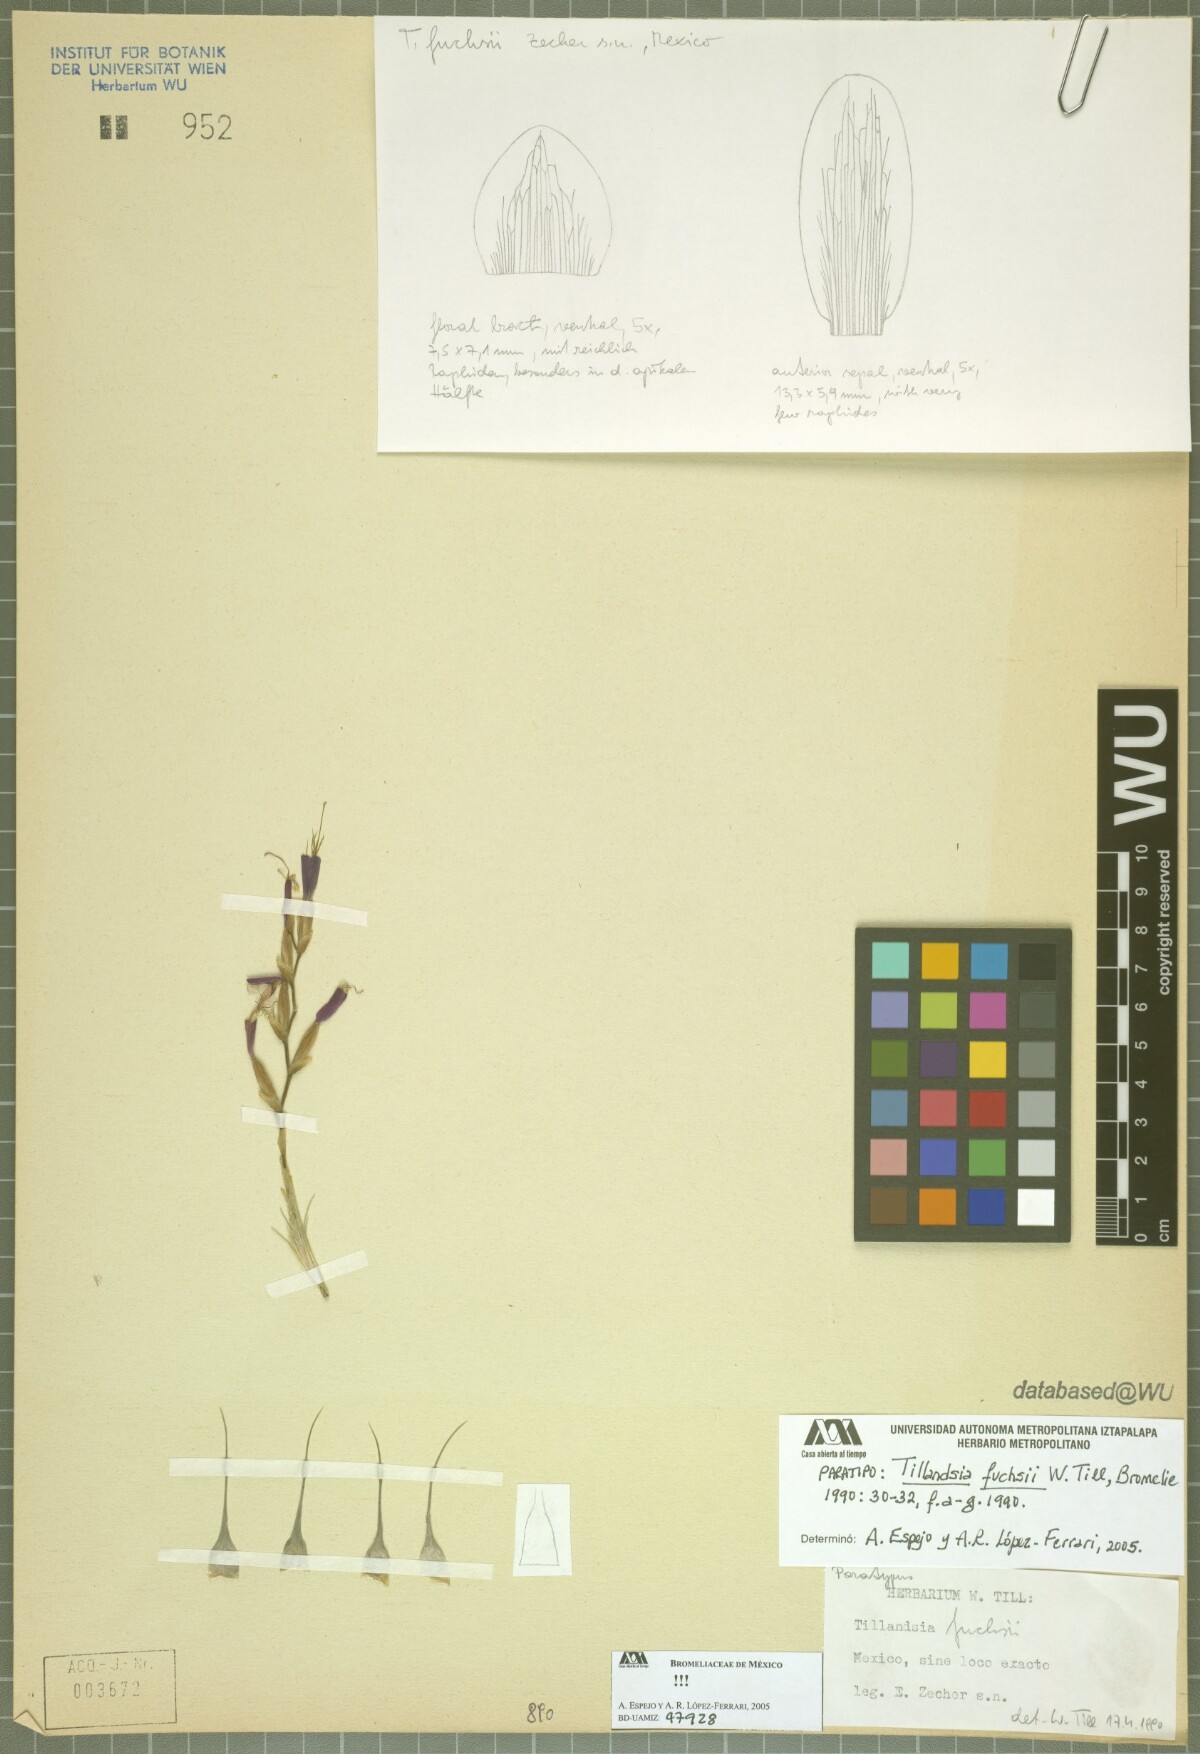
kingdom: Plantae
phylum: Tracheophyta
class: Liliopsida
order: Poales
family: Bromeliaceae
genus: Tillandsia
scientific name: Tillandsia fuchsii
